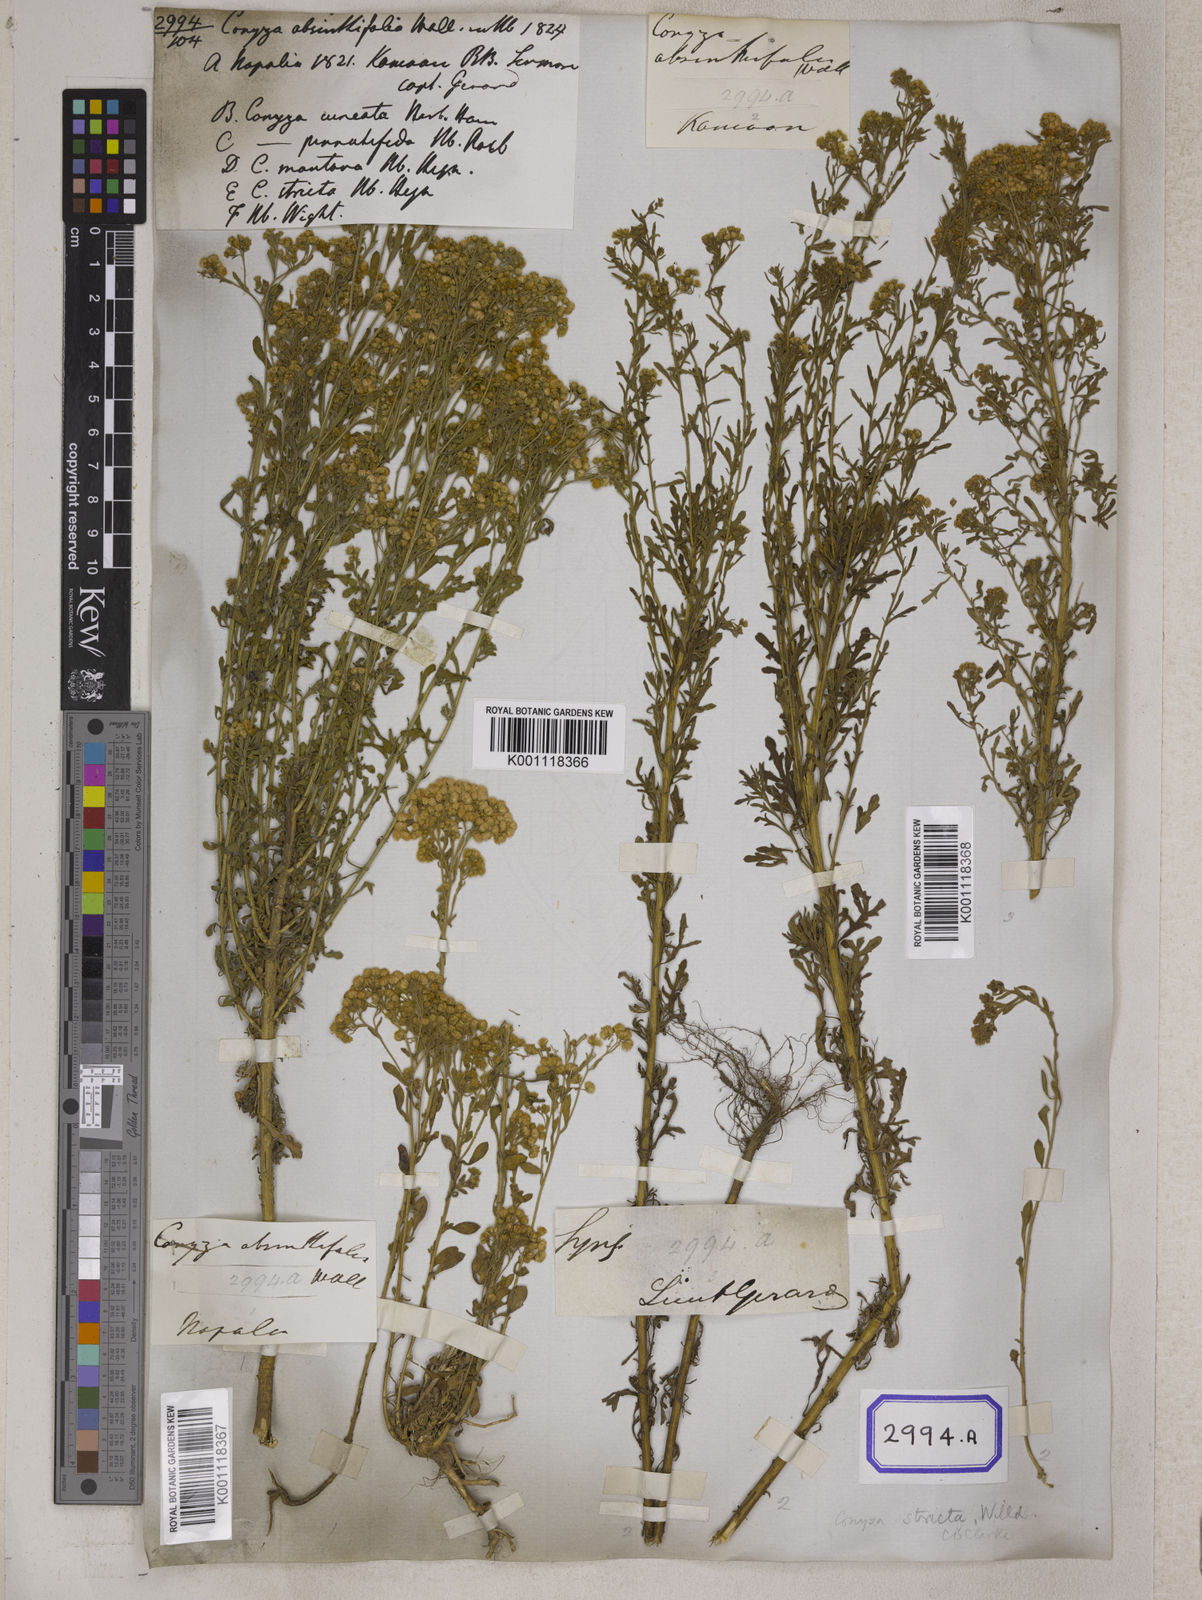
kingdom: Plantae
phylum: Tracheophyta
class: Magnoliopsida
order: Asterales
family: Asteraceae
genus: Nidorella
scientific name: Nidorella triloba
